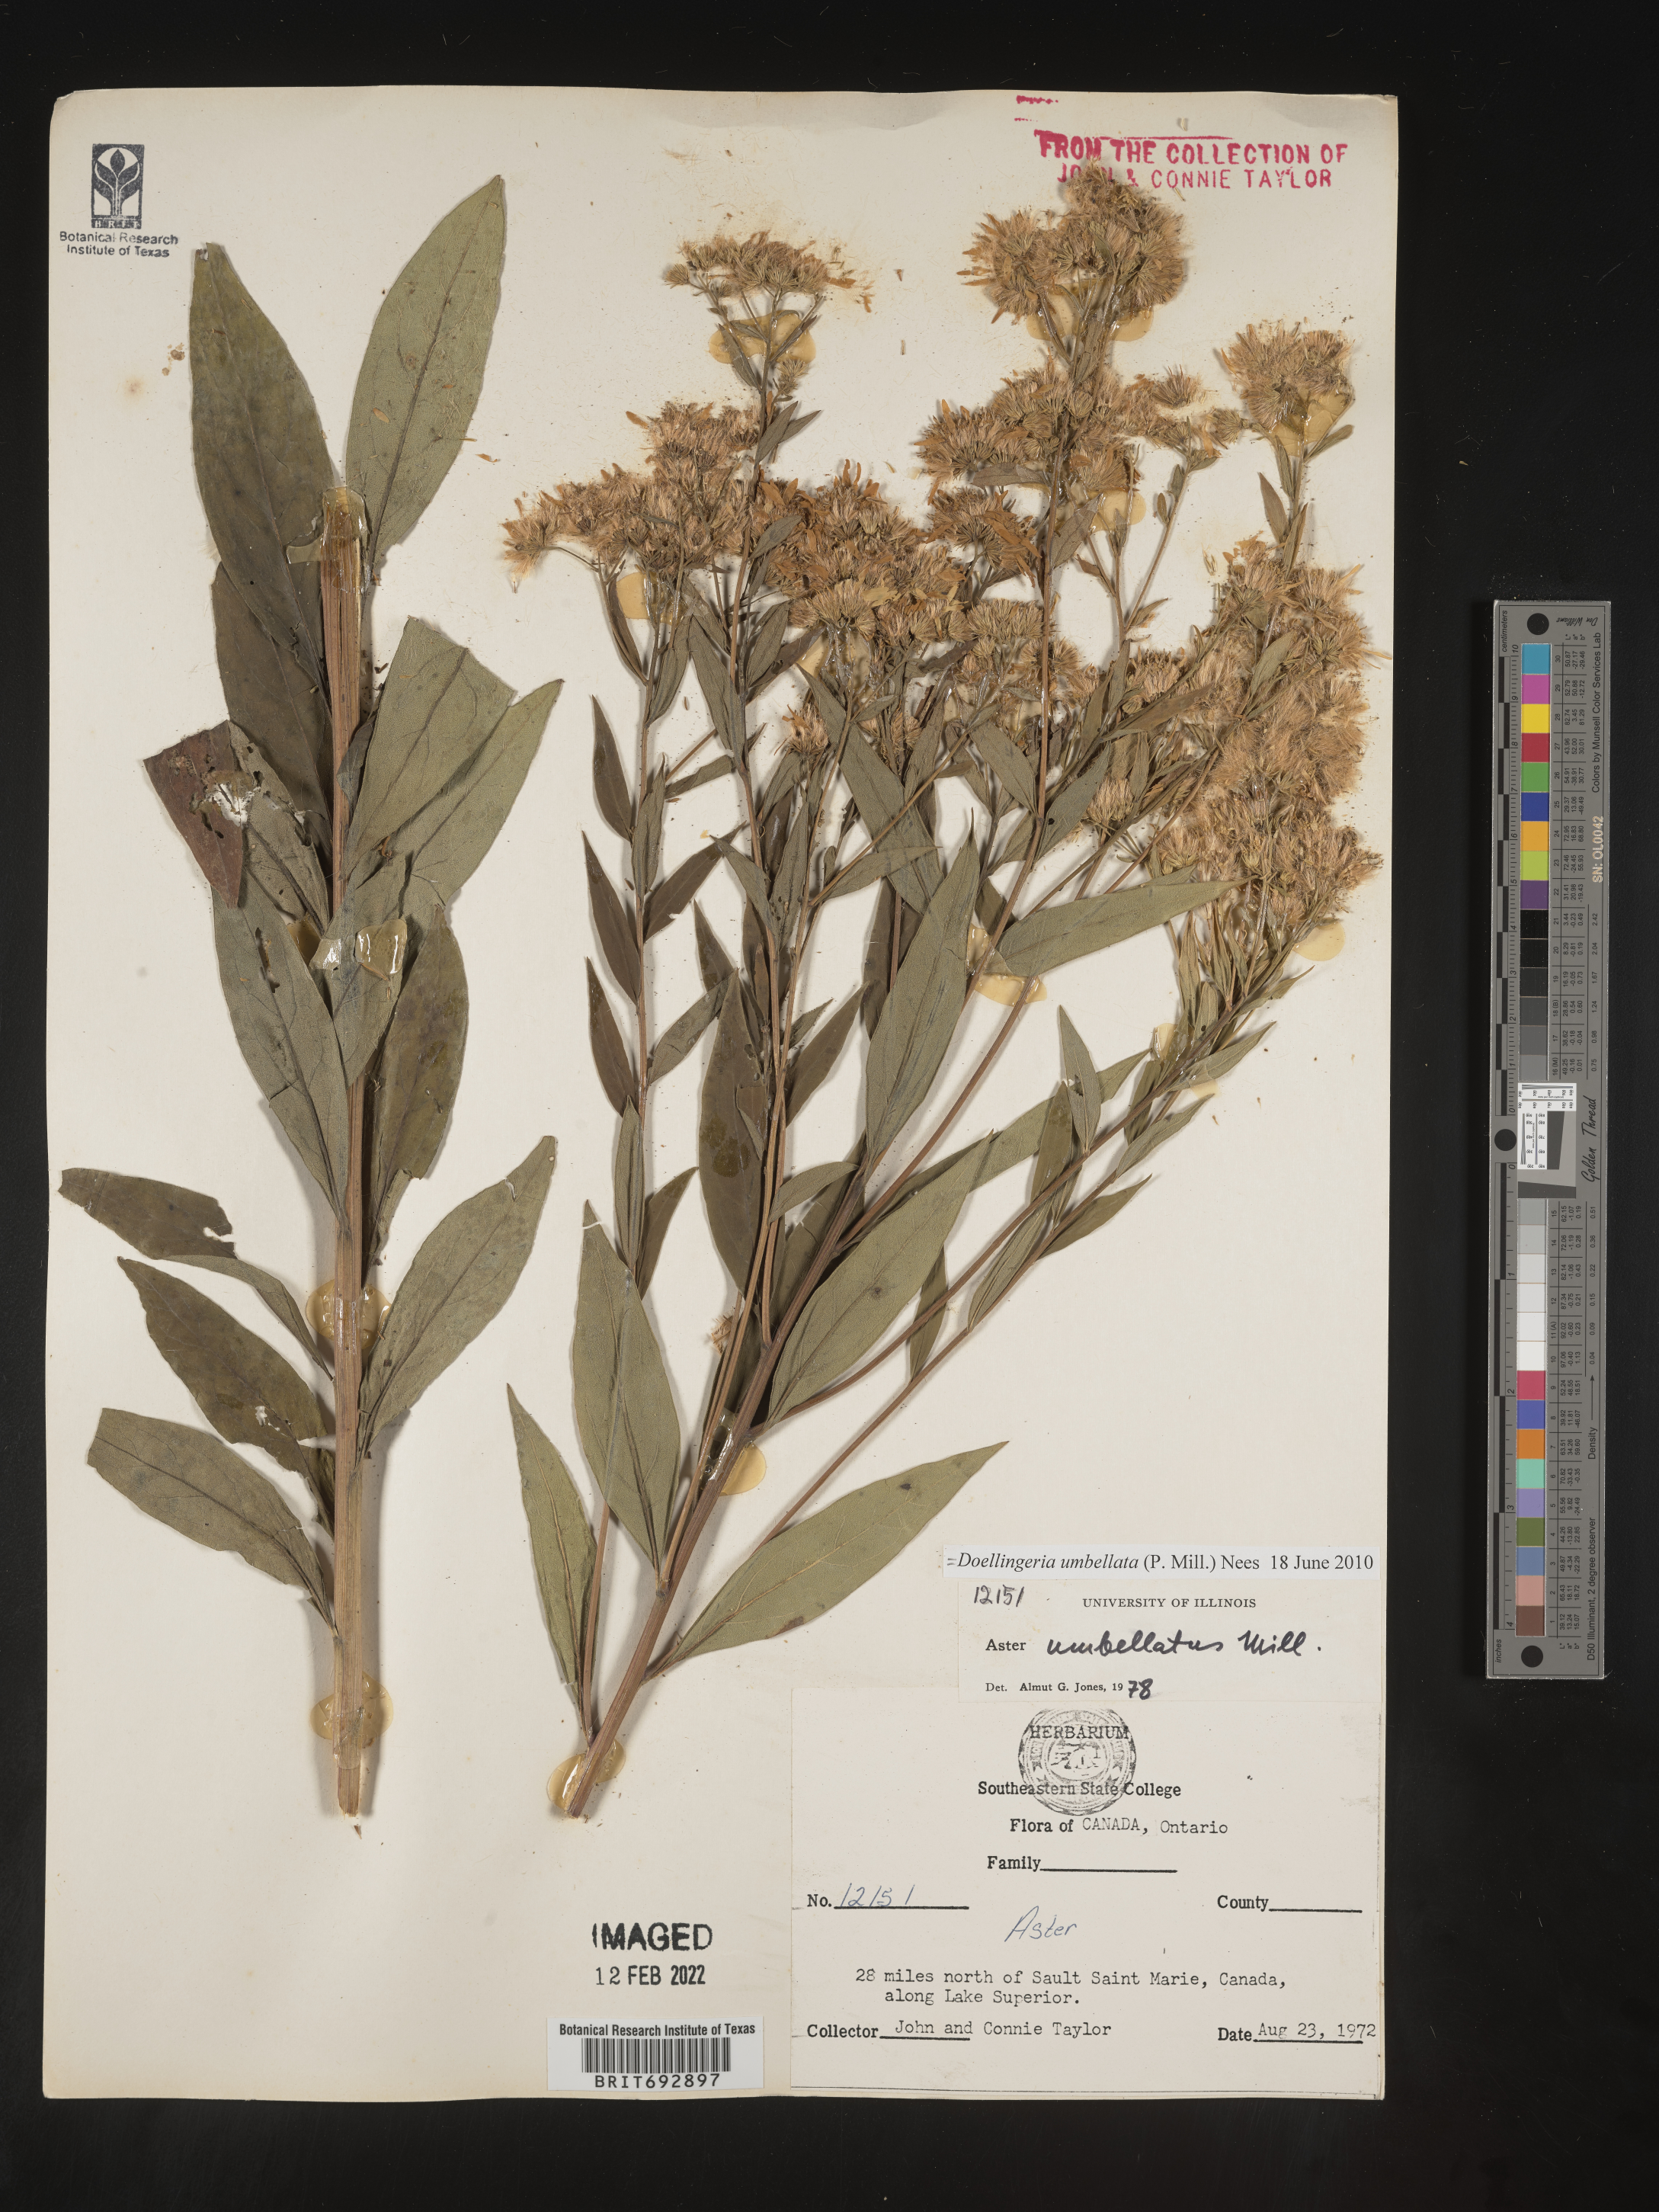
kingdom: Plantae
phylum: Tracheophyta
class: Magnoliopsida
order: Asterales
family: Asteraceae
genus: Doellingeria
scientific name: Doellingeria umbellata
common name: Flat-top white aster
